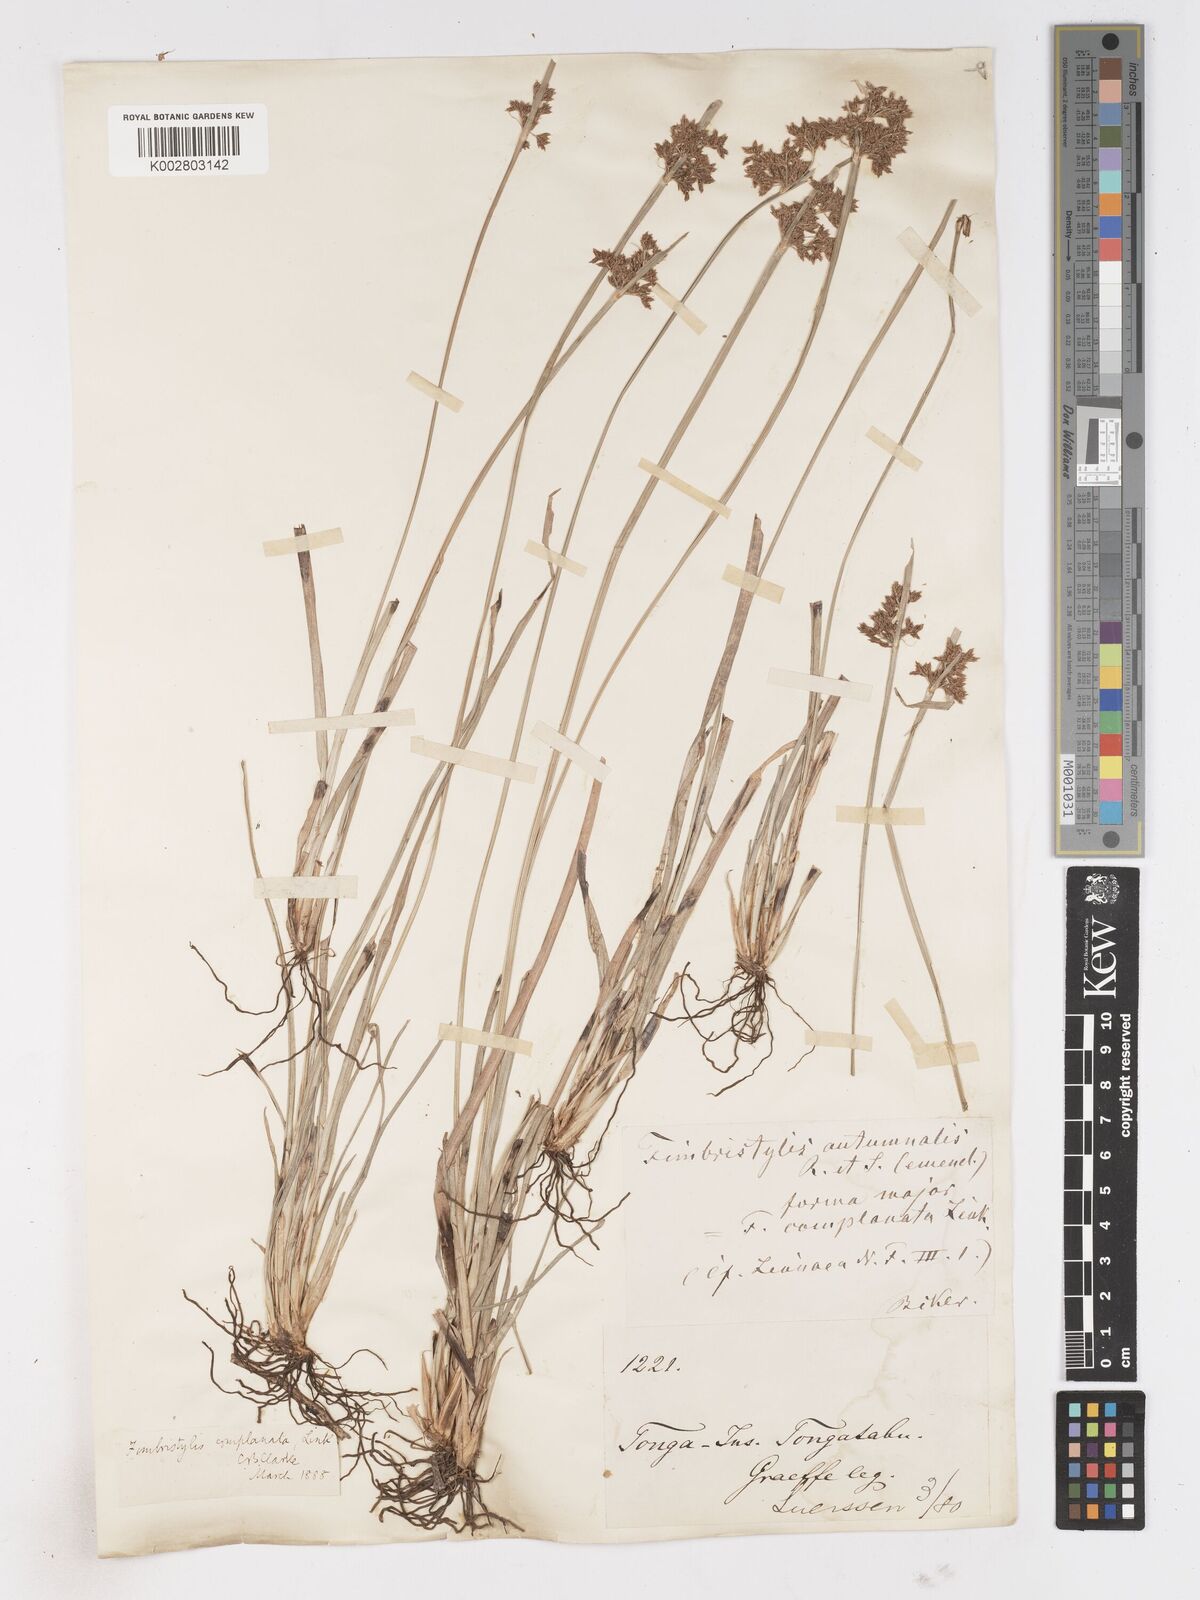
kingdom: Plantae
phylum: Tracheophyta
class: Liliopsida
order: Poales
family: Cyperaceae
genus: Fimbristylis
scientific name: Fimbristylis complanata
